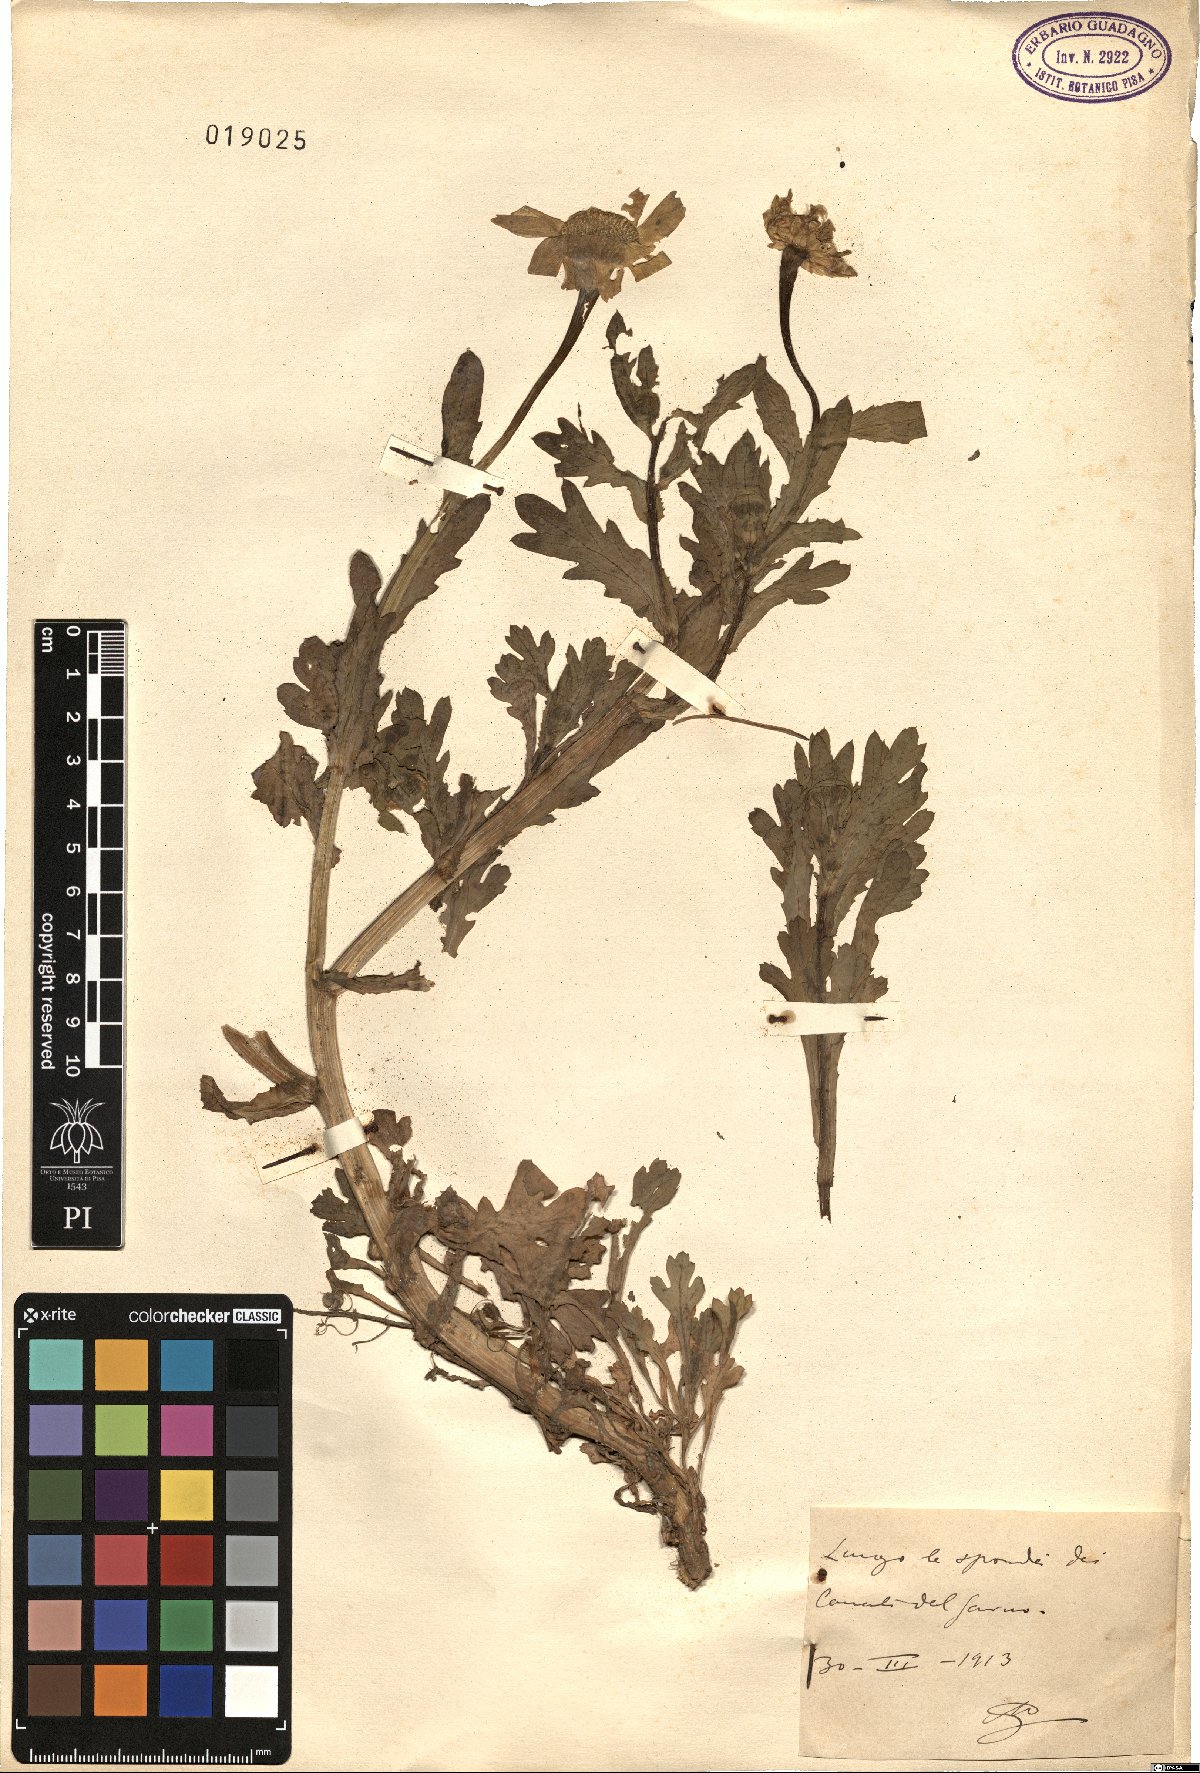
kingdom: Plantae
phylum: Tracheophyta
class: Magnoliopsida
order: Asterales
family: Asteraceae
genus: Pyrethrum
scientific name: Pyrethrum
